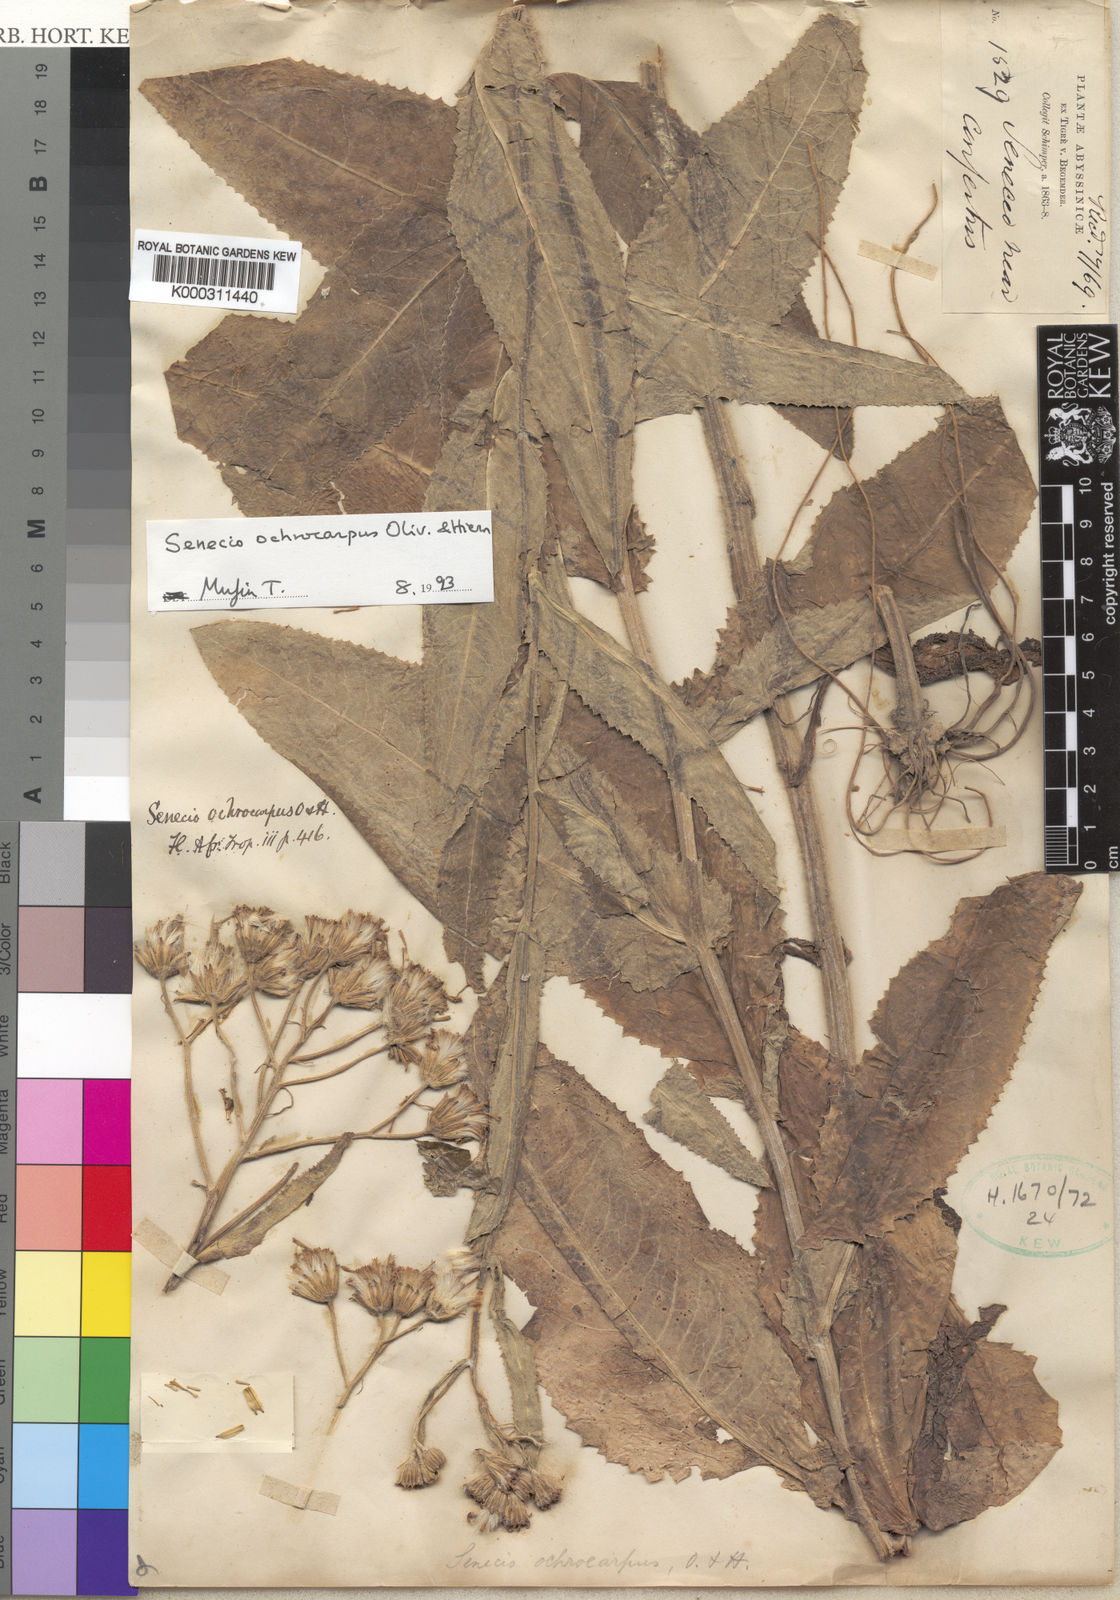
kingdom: Plantae
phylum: Tracheophyta
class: Magnoliopsida
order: Asterales
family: Asteraceae
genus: Senecio
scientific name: Senecio ochrocarpus
